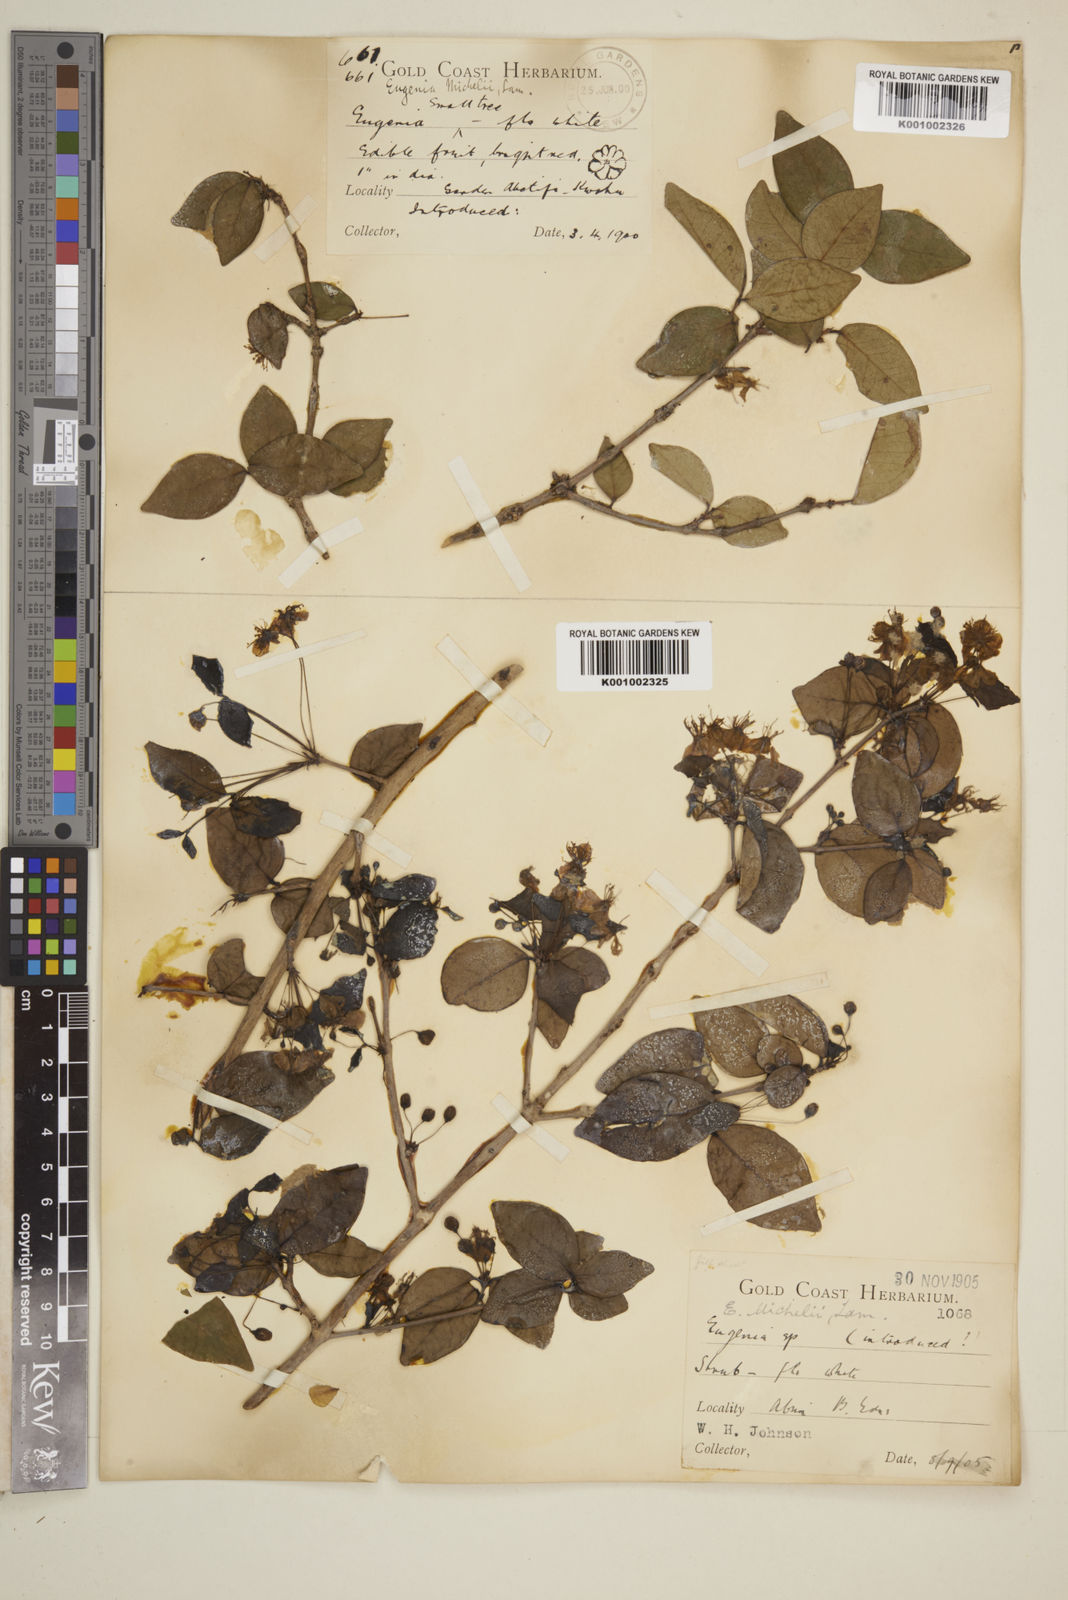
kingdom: Plantae
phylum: Tracheophyta
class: Magnoliopsida
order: Myrtales
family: Myrtaceae
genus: Eugenia
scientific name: Eugenia uniflora
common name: Surinam cherry
